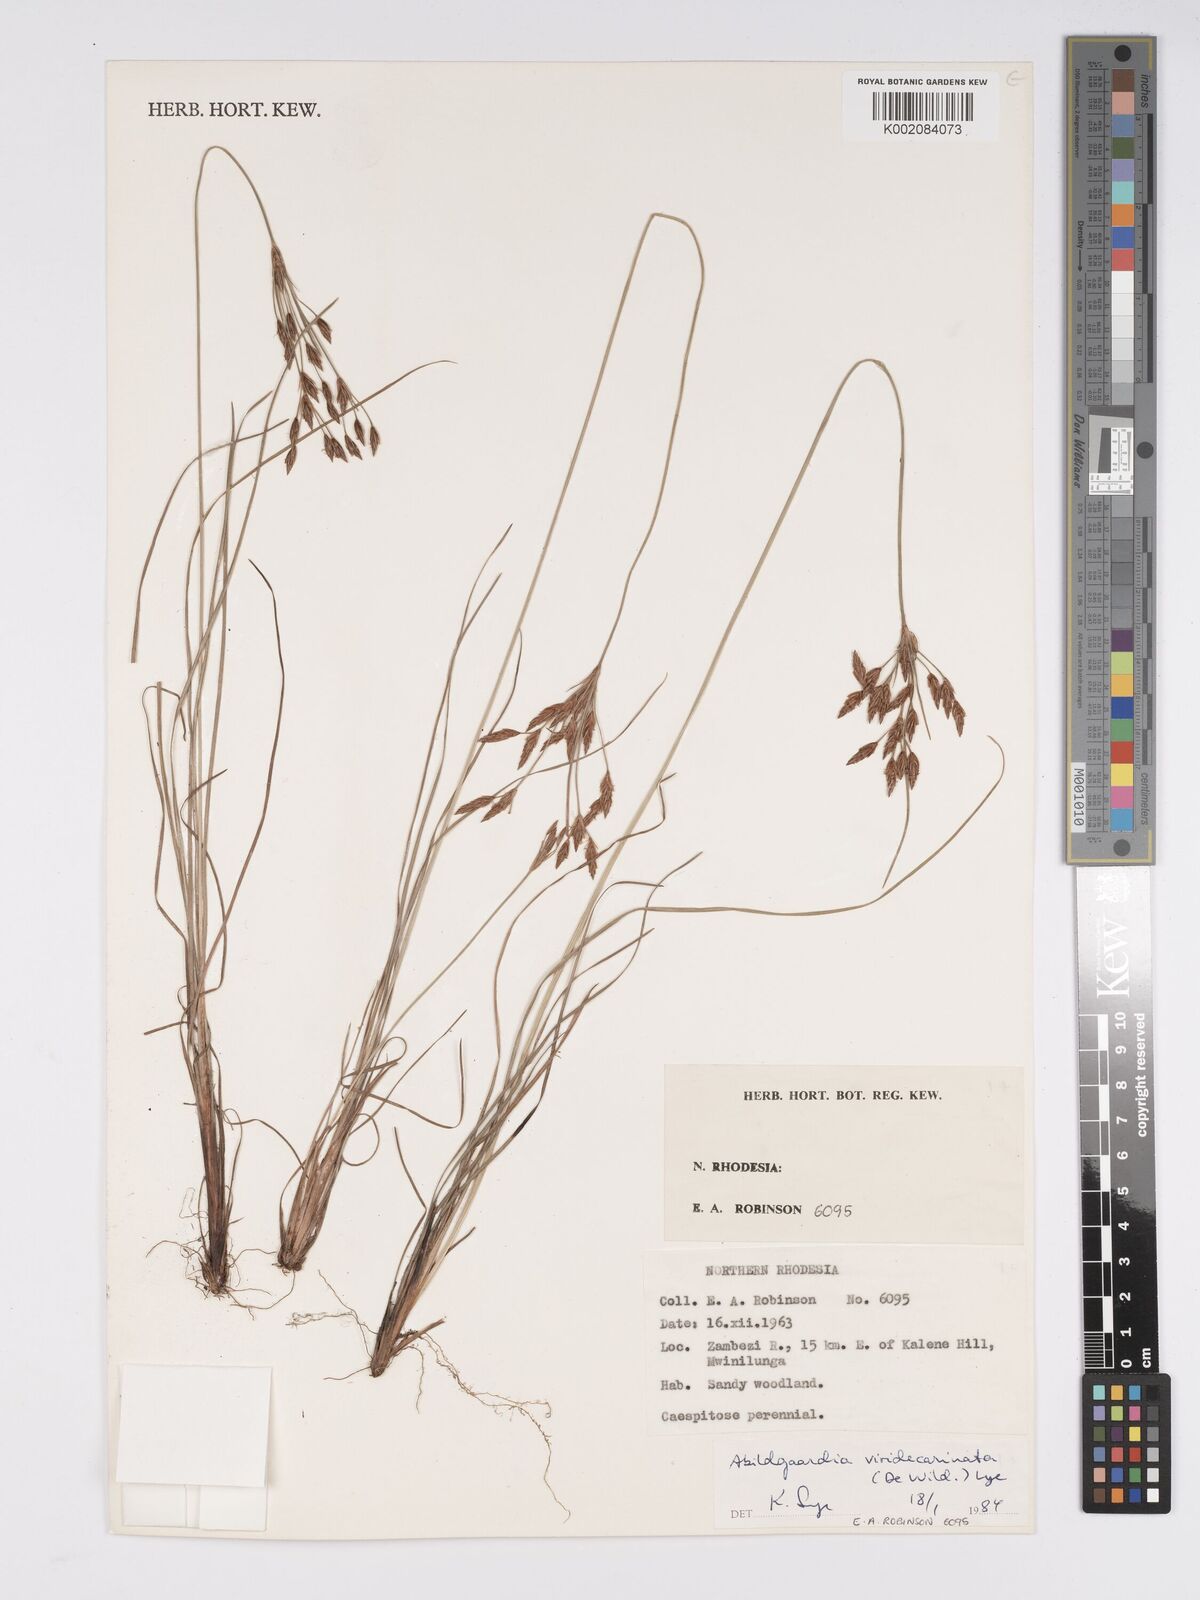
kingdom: Plantae
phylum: Tracheophyta
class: Liliopsida
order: Poales
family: Cyperaceae
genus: Bulbostylis
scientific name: Bulbostylis viridecarinata
